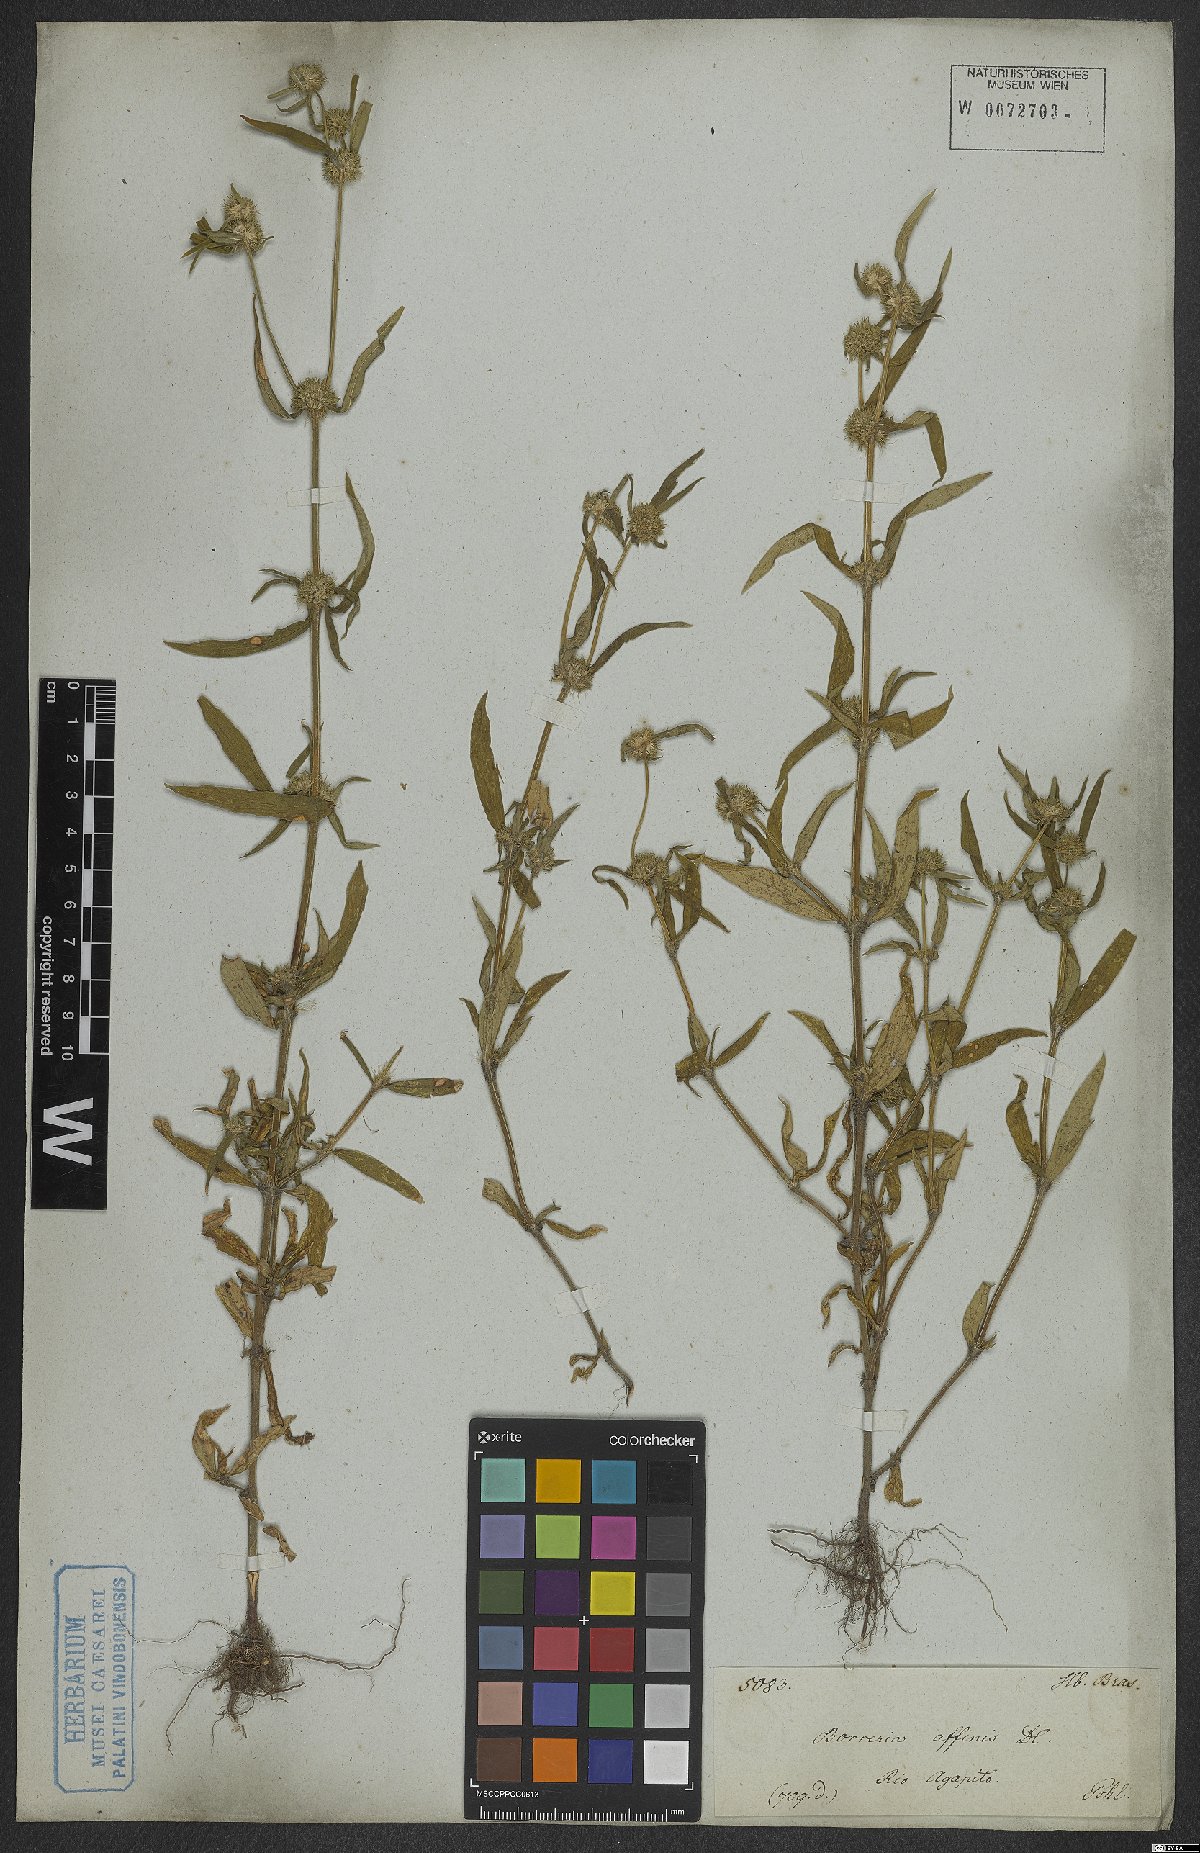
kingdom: Plantae
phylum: Tracheophyta
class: Magnoliopsida
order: Gentianales
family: Rubiaceae
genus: Spermacoce
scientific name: Spermacoce affinis
